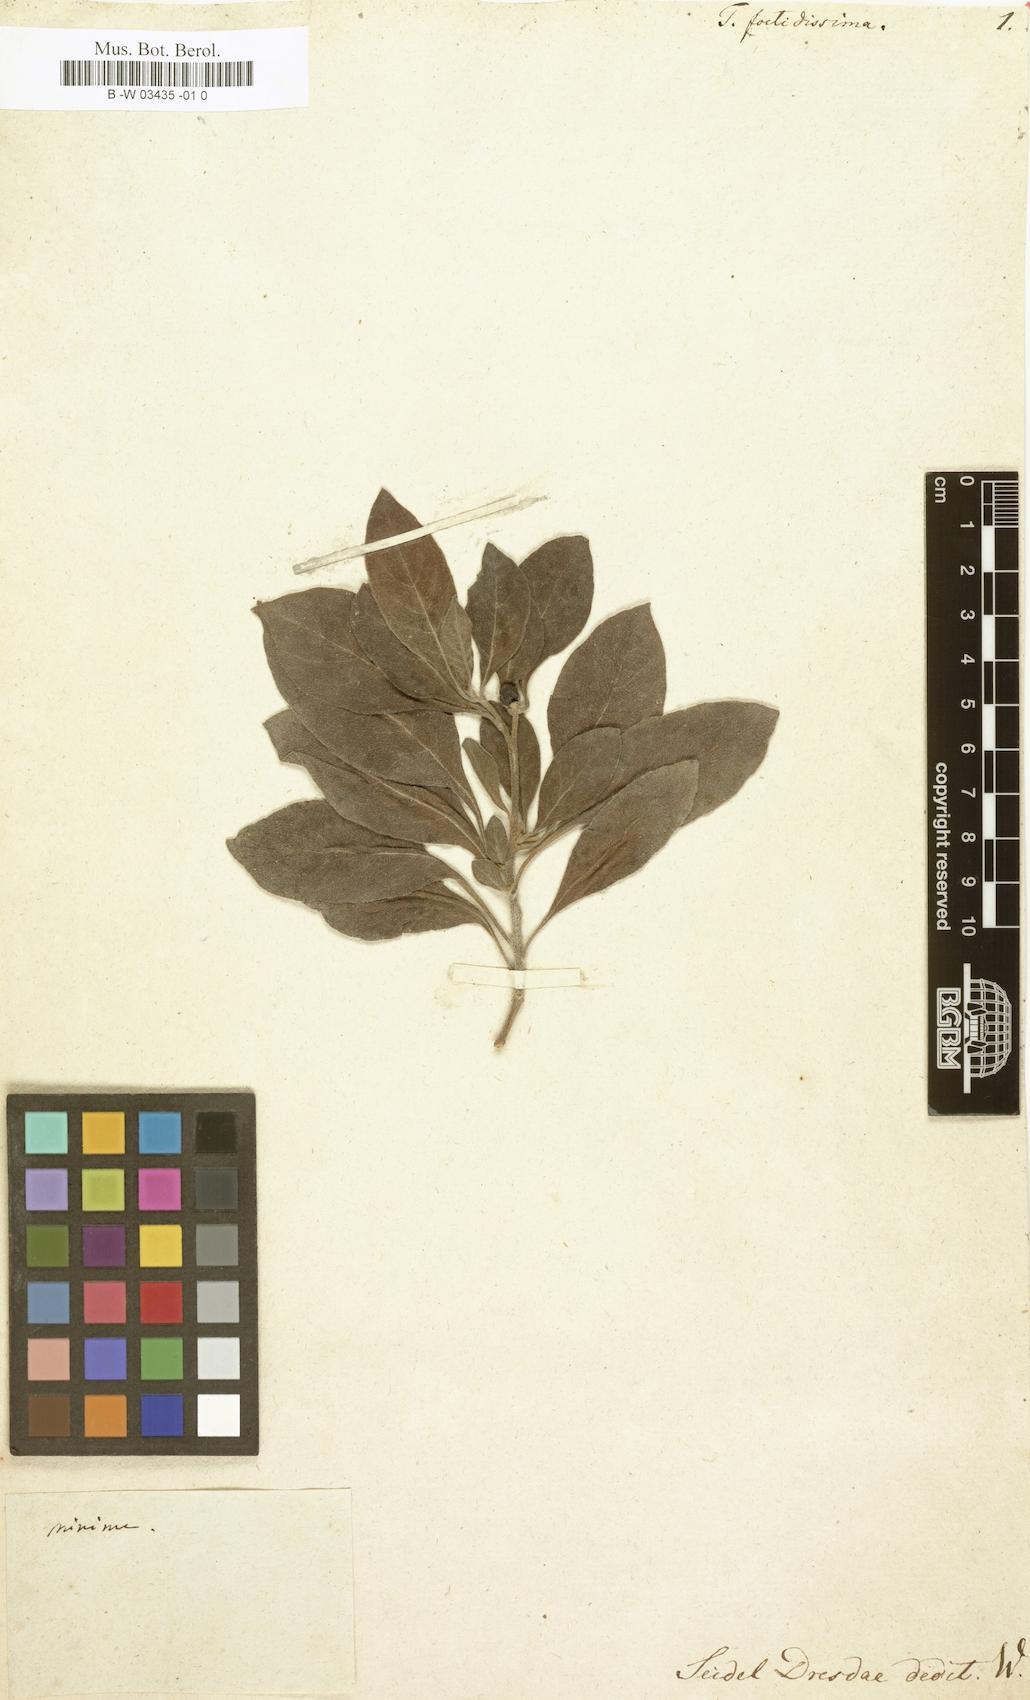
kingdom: Plantae
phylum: Tracheophyta
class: Magnoliopsida
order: Boraginales
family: Heliotropiaceae
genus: Heliotropium
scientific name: Heliotropium
